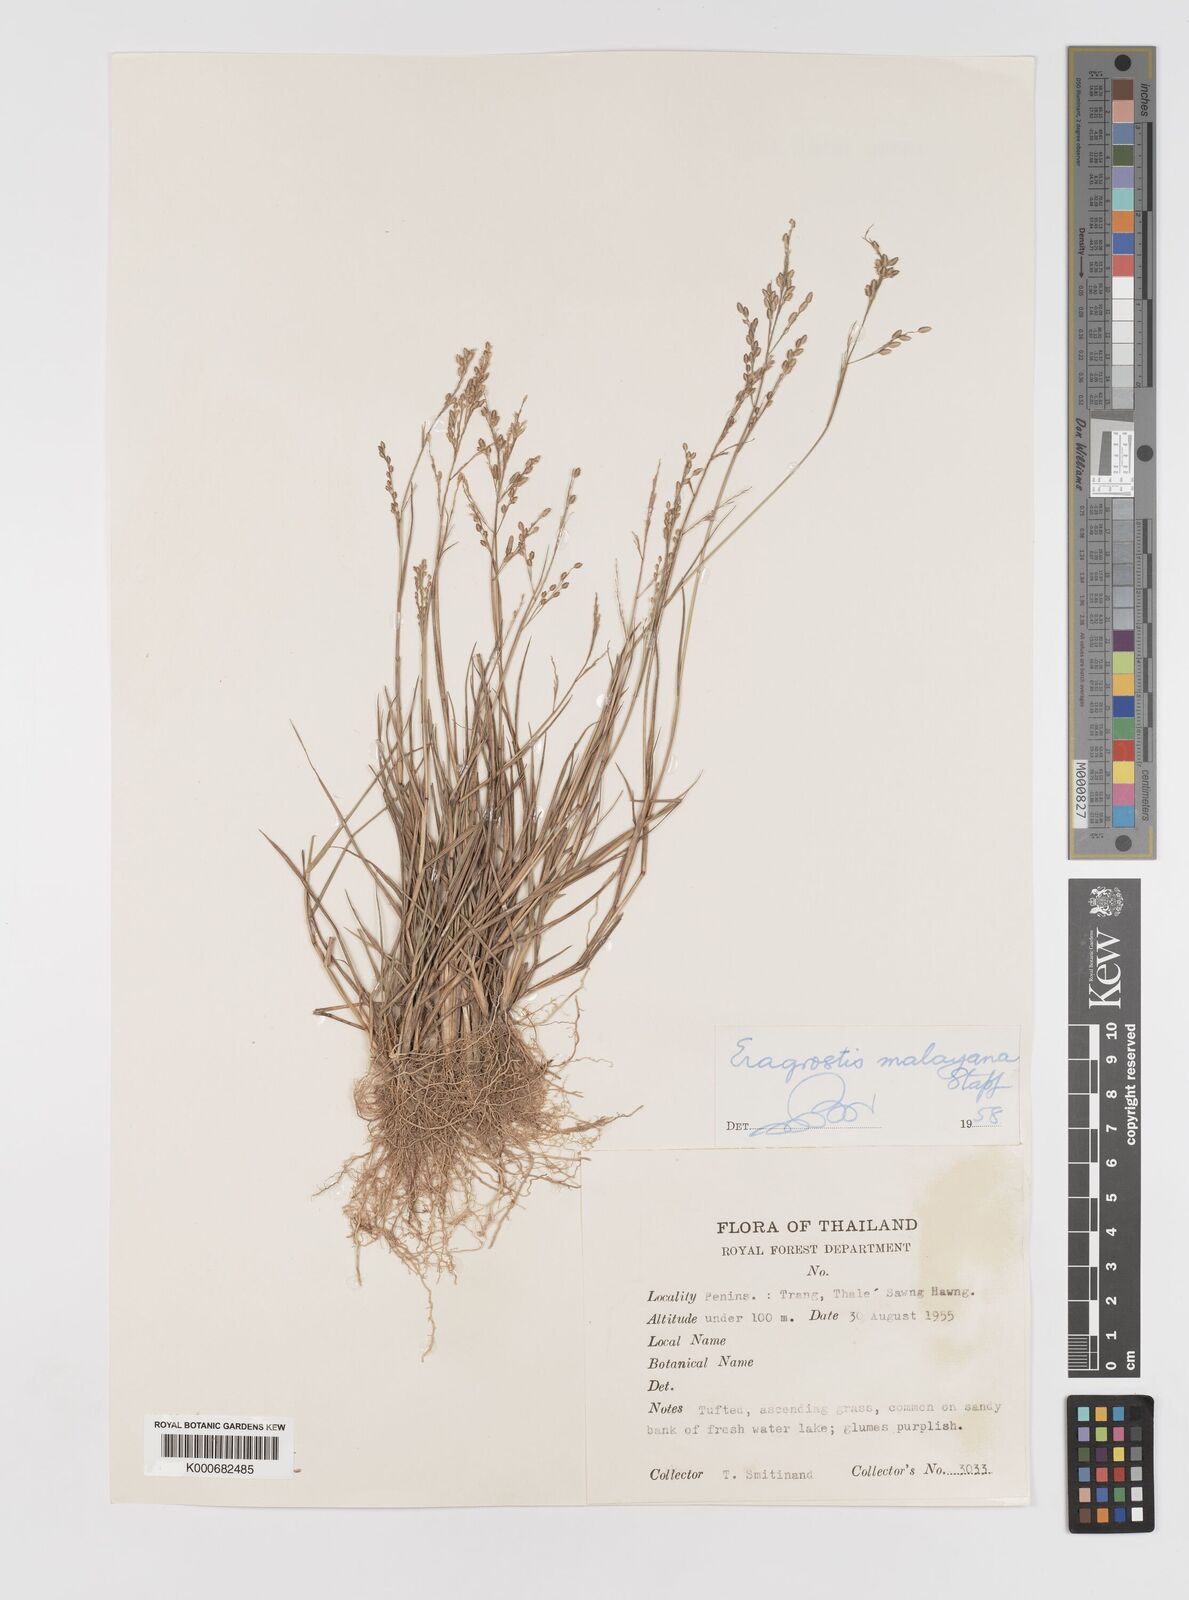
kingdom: Plantae
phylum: Tracheophyta
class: Liliopsida
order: Poales
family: Poaceae
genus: Eragrostis
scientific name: Eragrostis montana
